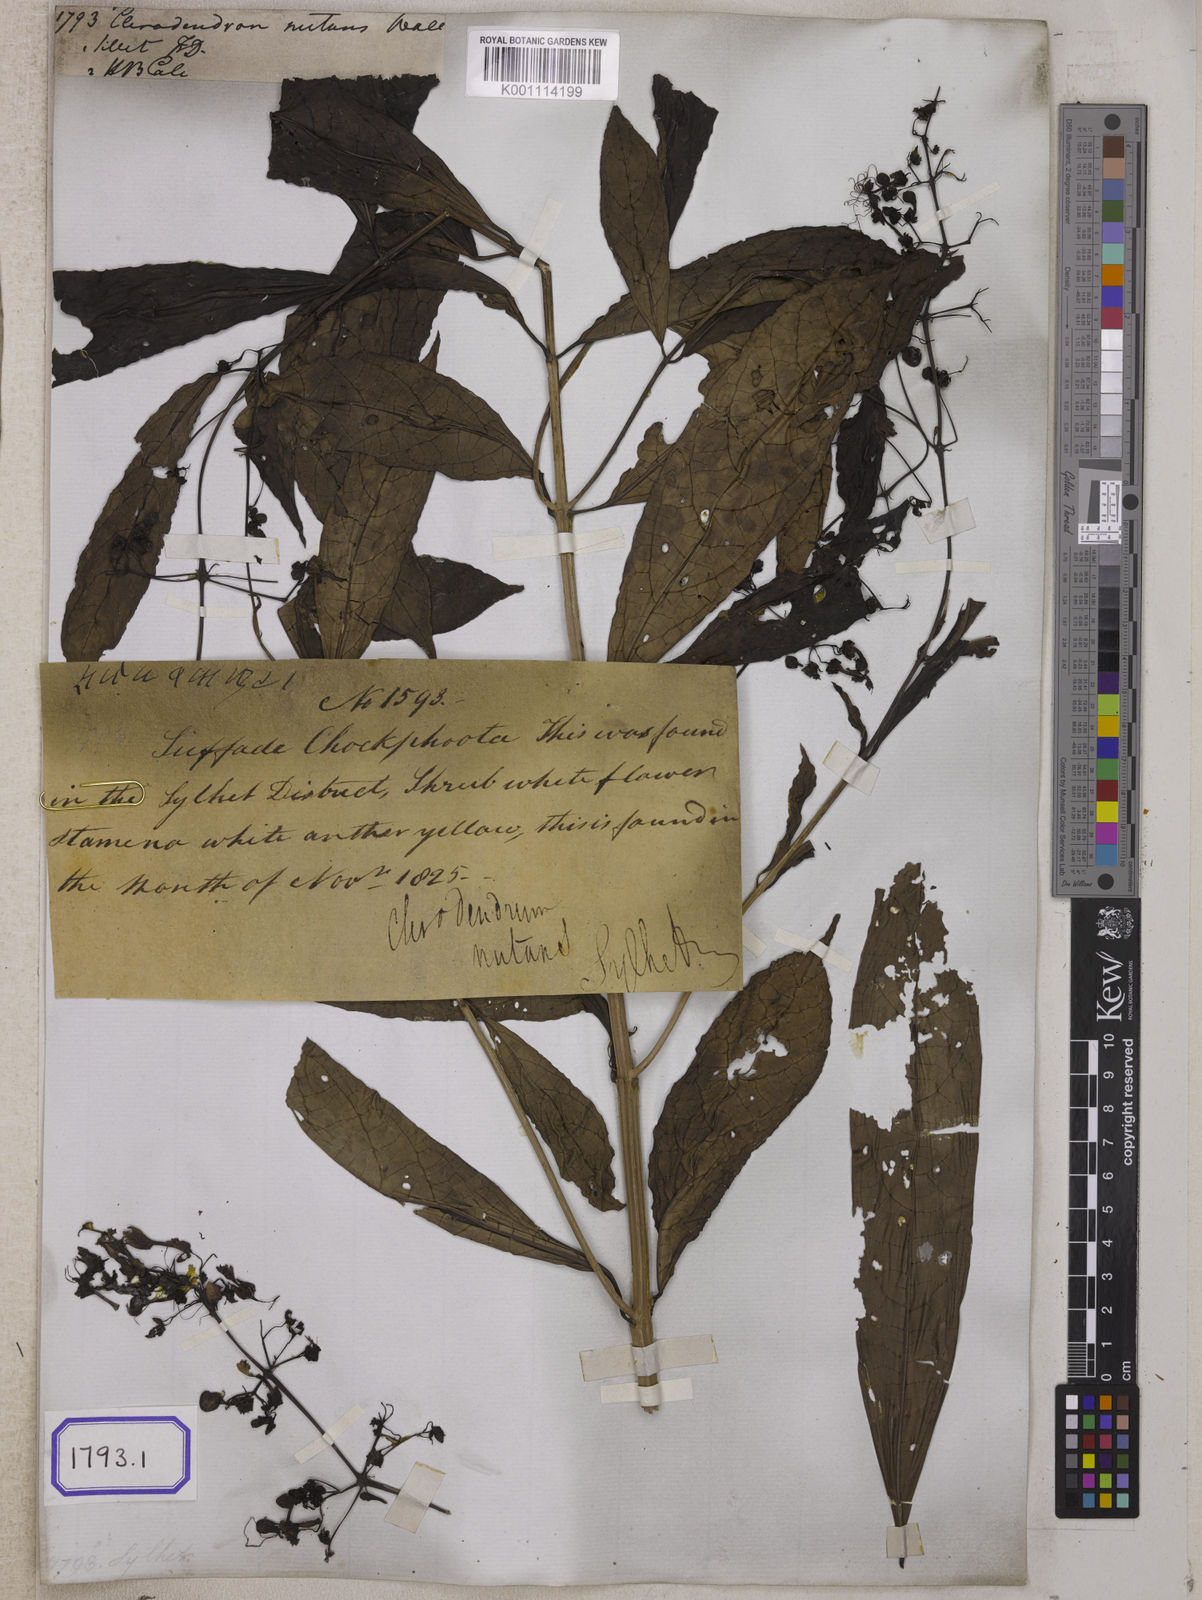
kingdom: Plantae
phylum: Tracheophyta
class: Magnoliopsida
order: Lamiales
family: Lamiaceae
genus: Clerodendrum
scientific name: Clerodendrum
